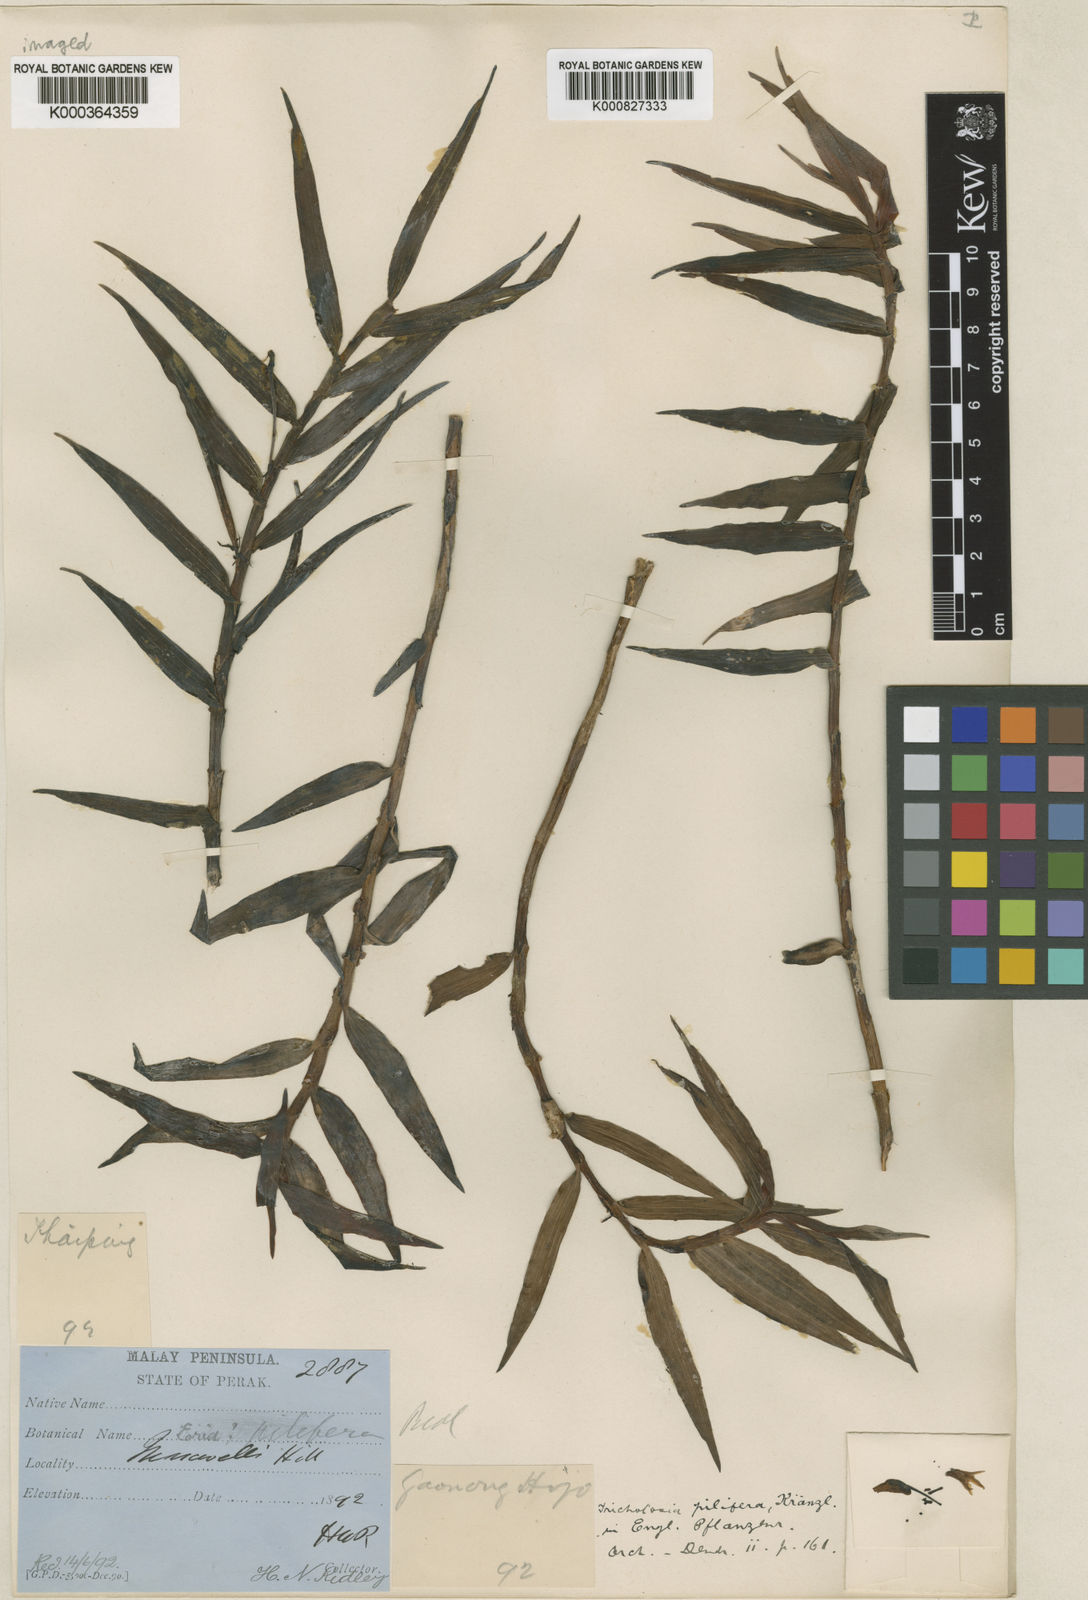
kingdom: Plantae
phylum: Tracheophyta
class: Liliopsida
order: Asparagales
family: Orchidaceae
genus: Cylindrolobus
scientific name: Cylindrolobus lamonganensis
